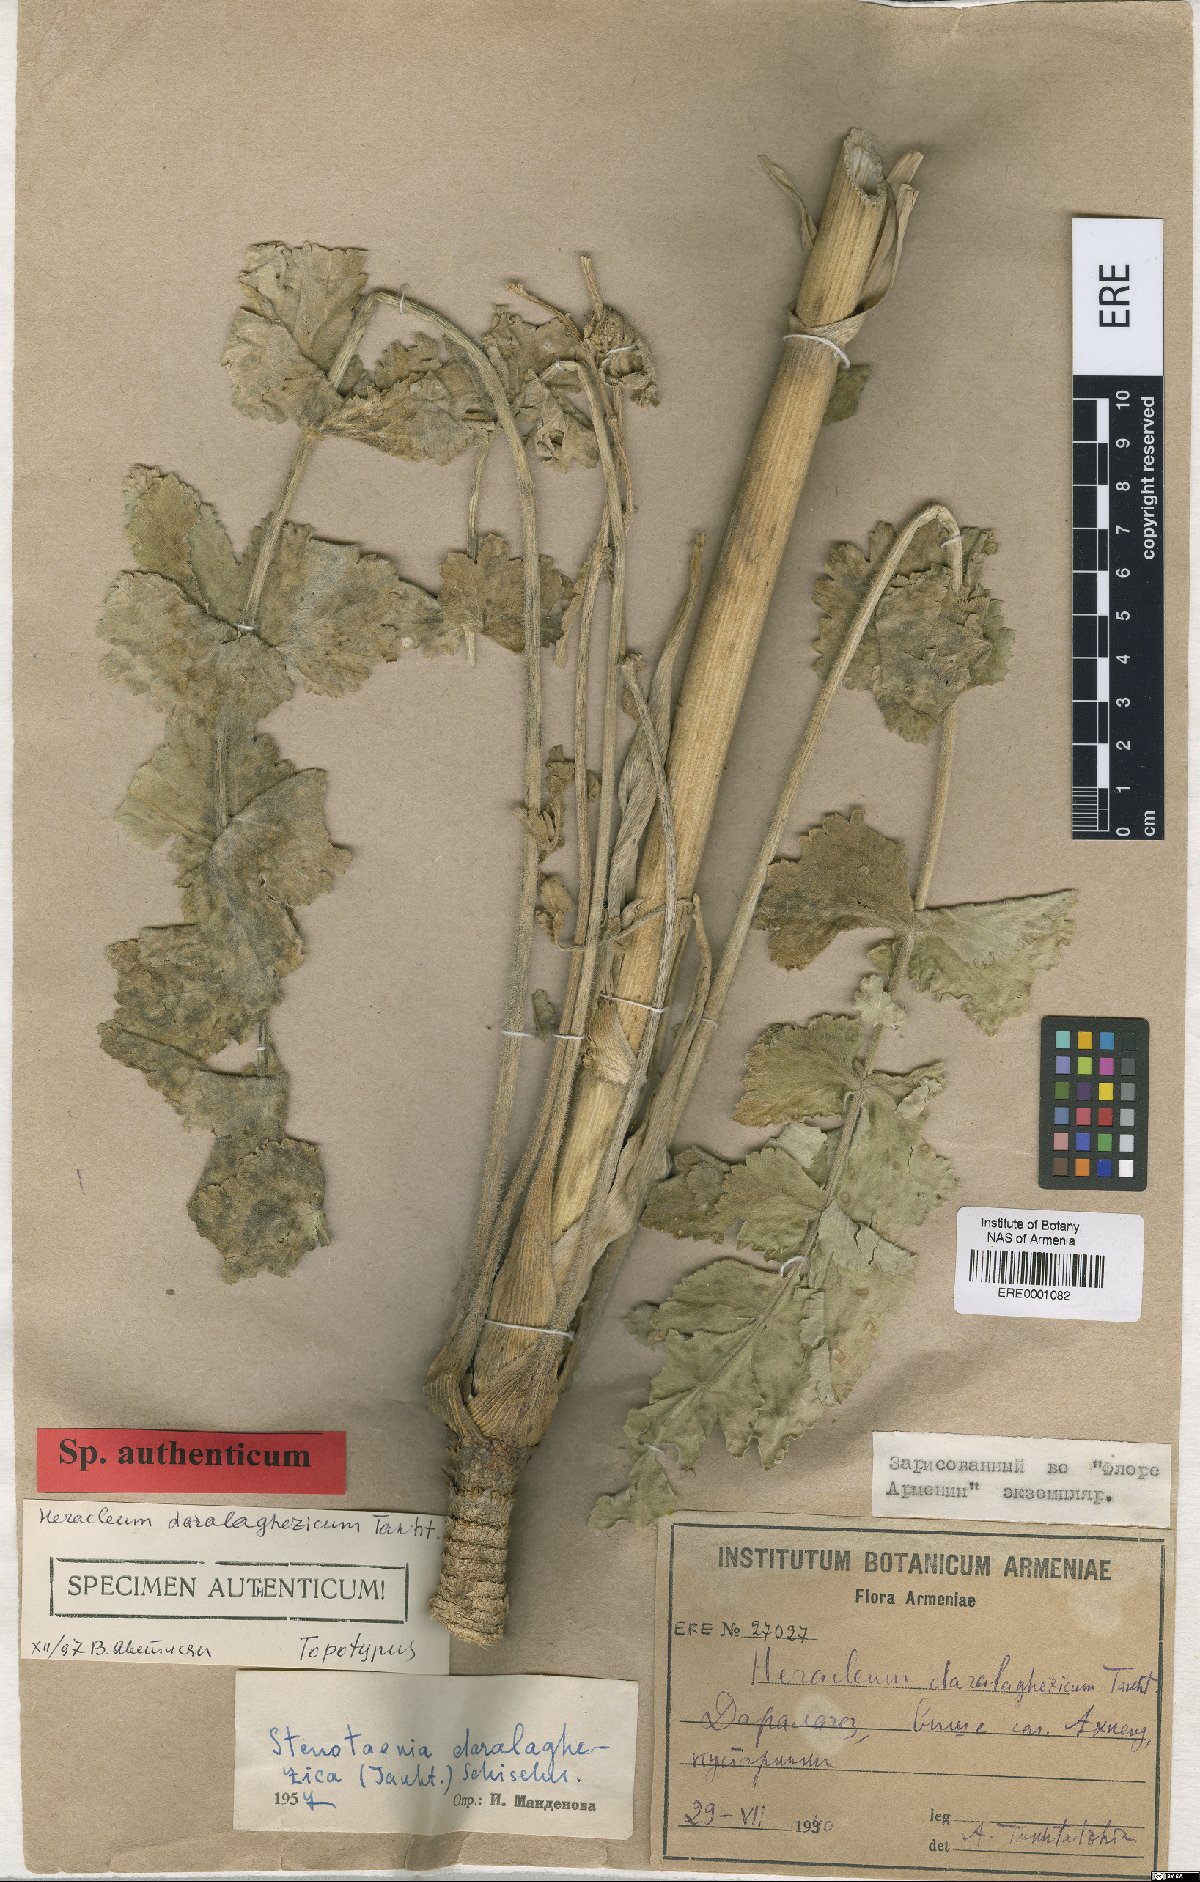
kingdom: Plantae
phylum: Tracheophyta
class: Magnoliopsida
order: Apiales
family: Apiaceae
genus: Stenotaenia
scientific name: Stenotaenia daralaghezica
